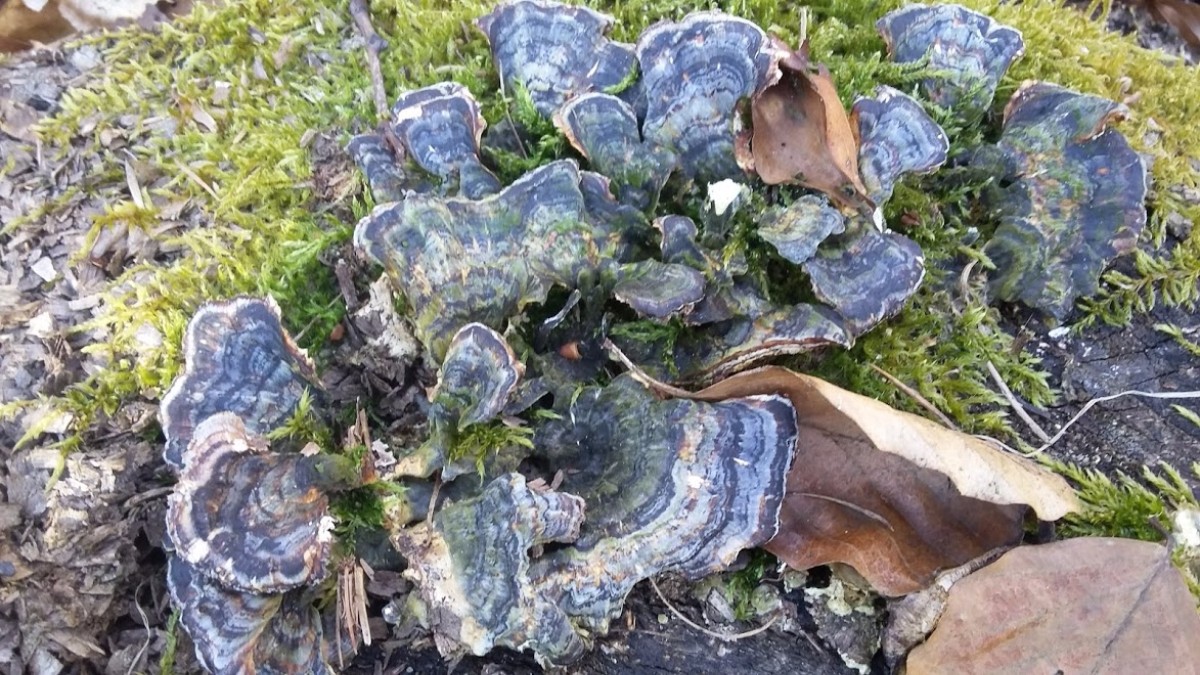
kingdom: Fungi
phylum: Basidiomycota
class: Agaricomycetes
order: Polyporales
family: Polyporaceae
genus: Trametes
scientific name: Trametes versicolor
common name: broget læderporesvamp
